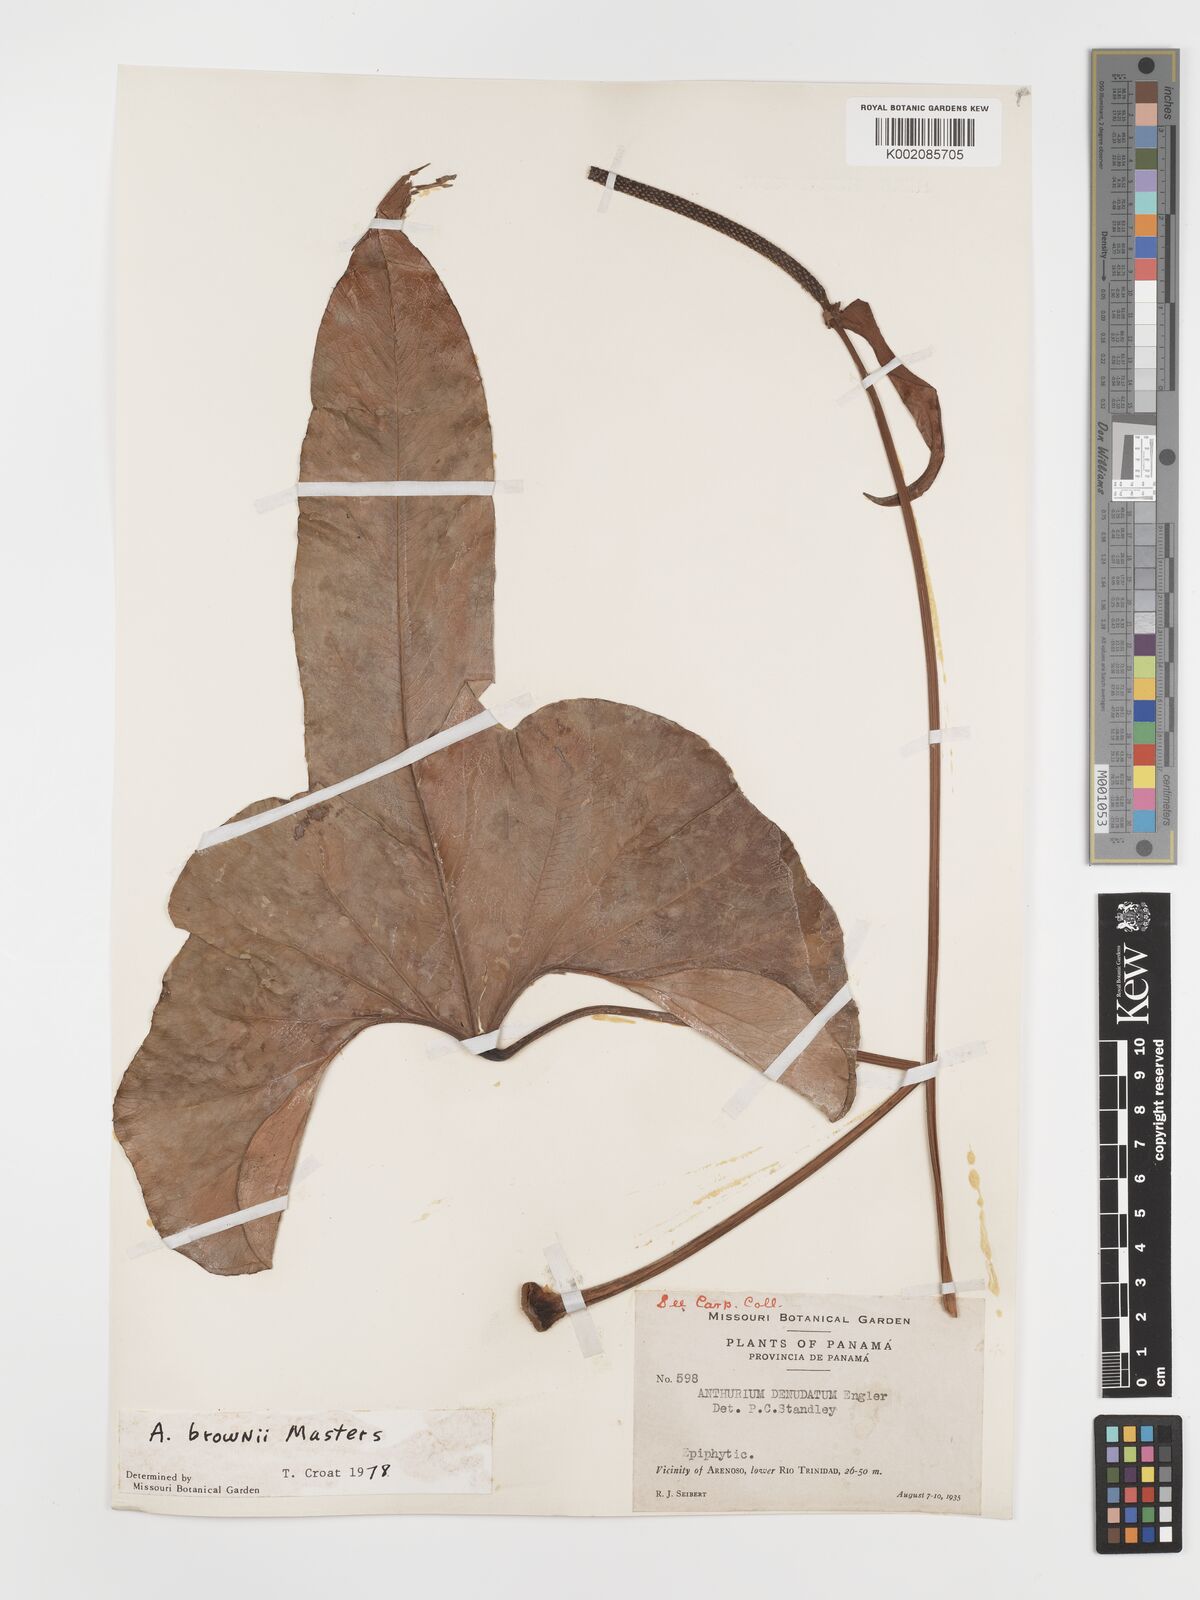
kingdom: Plantae
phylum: Tracheophyta
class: Liliopsida
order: Alismatales
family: Araceae
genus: Anthurium
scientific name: Anthurium brownii
